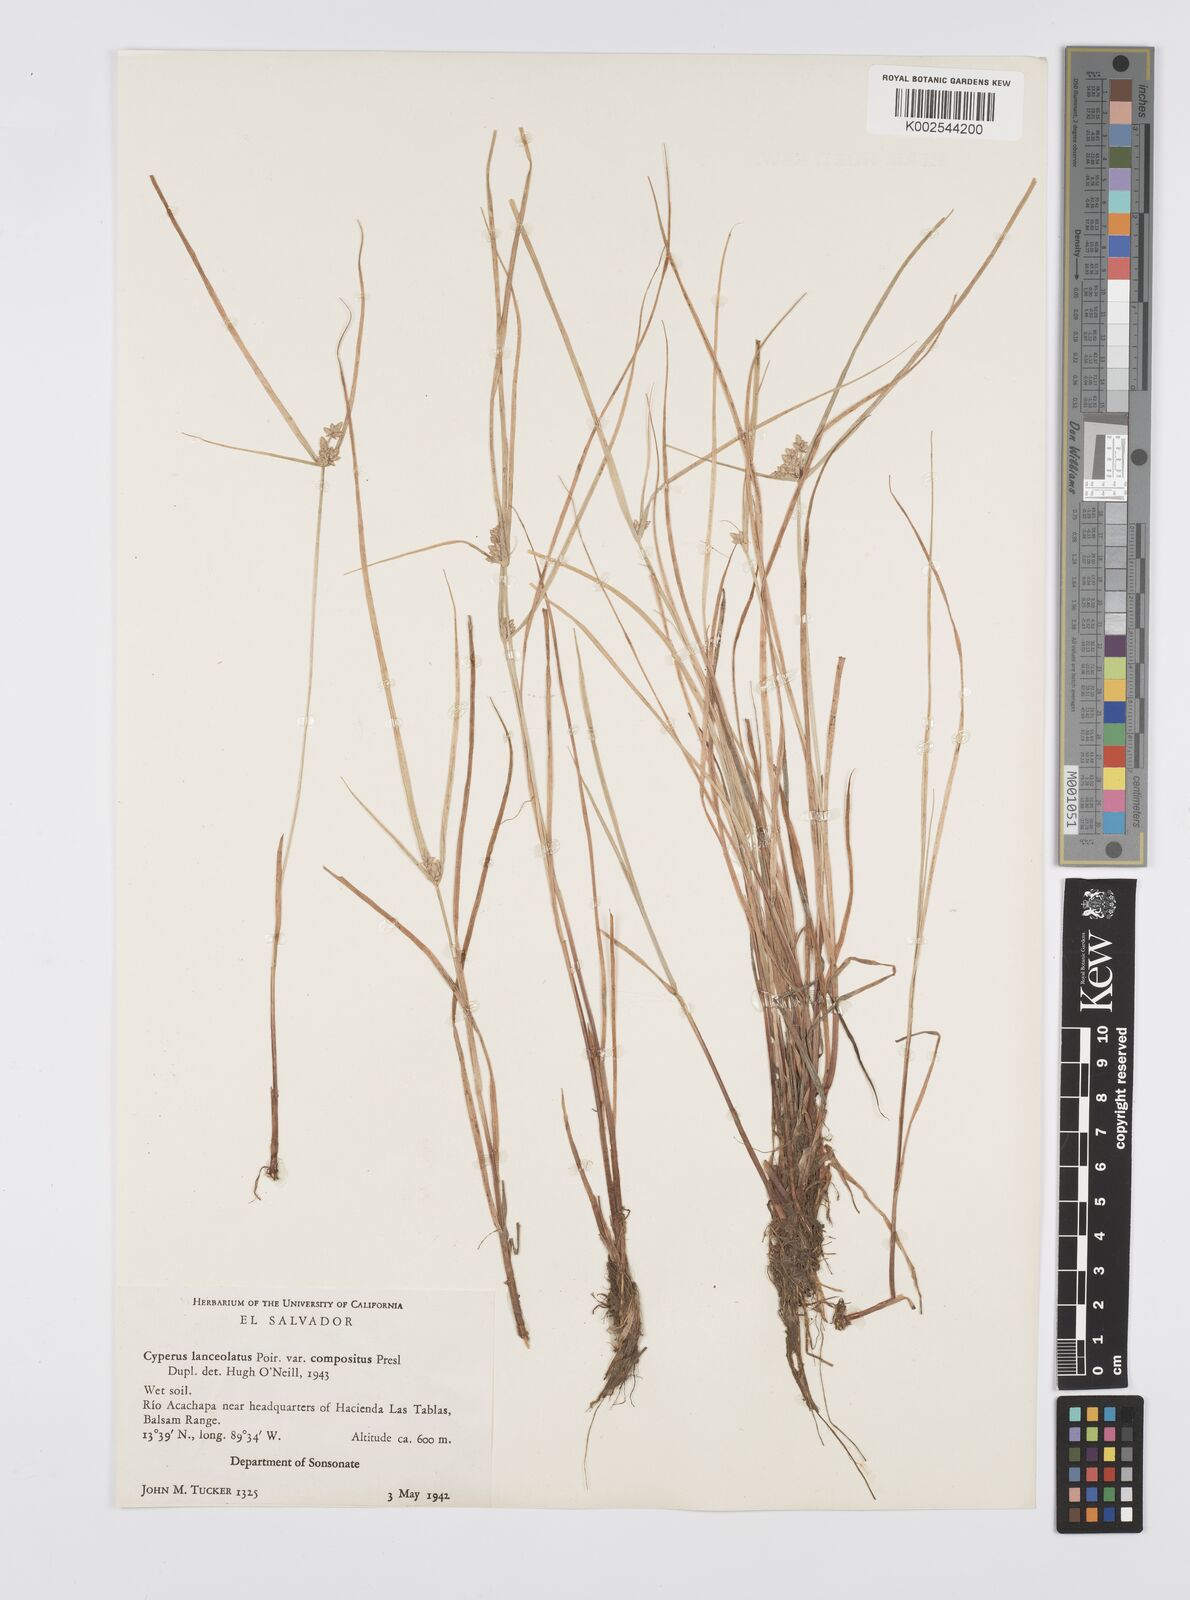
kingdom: Plantae
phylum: Tracheophyta
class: Liliopsida
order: Poales
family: Cyperaceae
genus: Cyperus
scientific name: Cyperus
